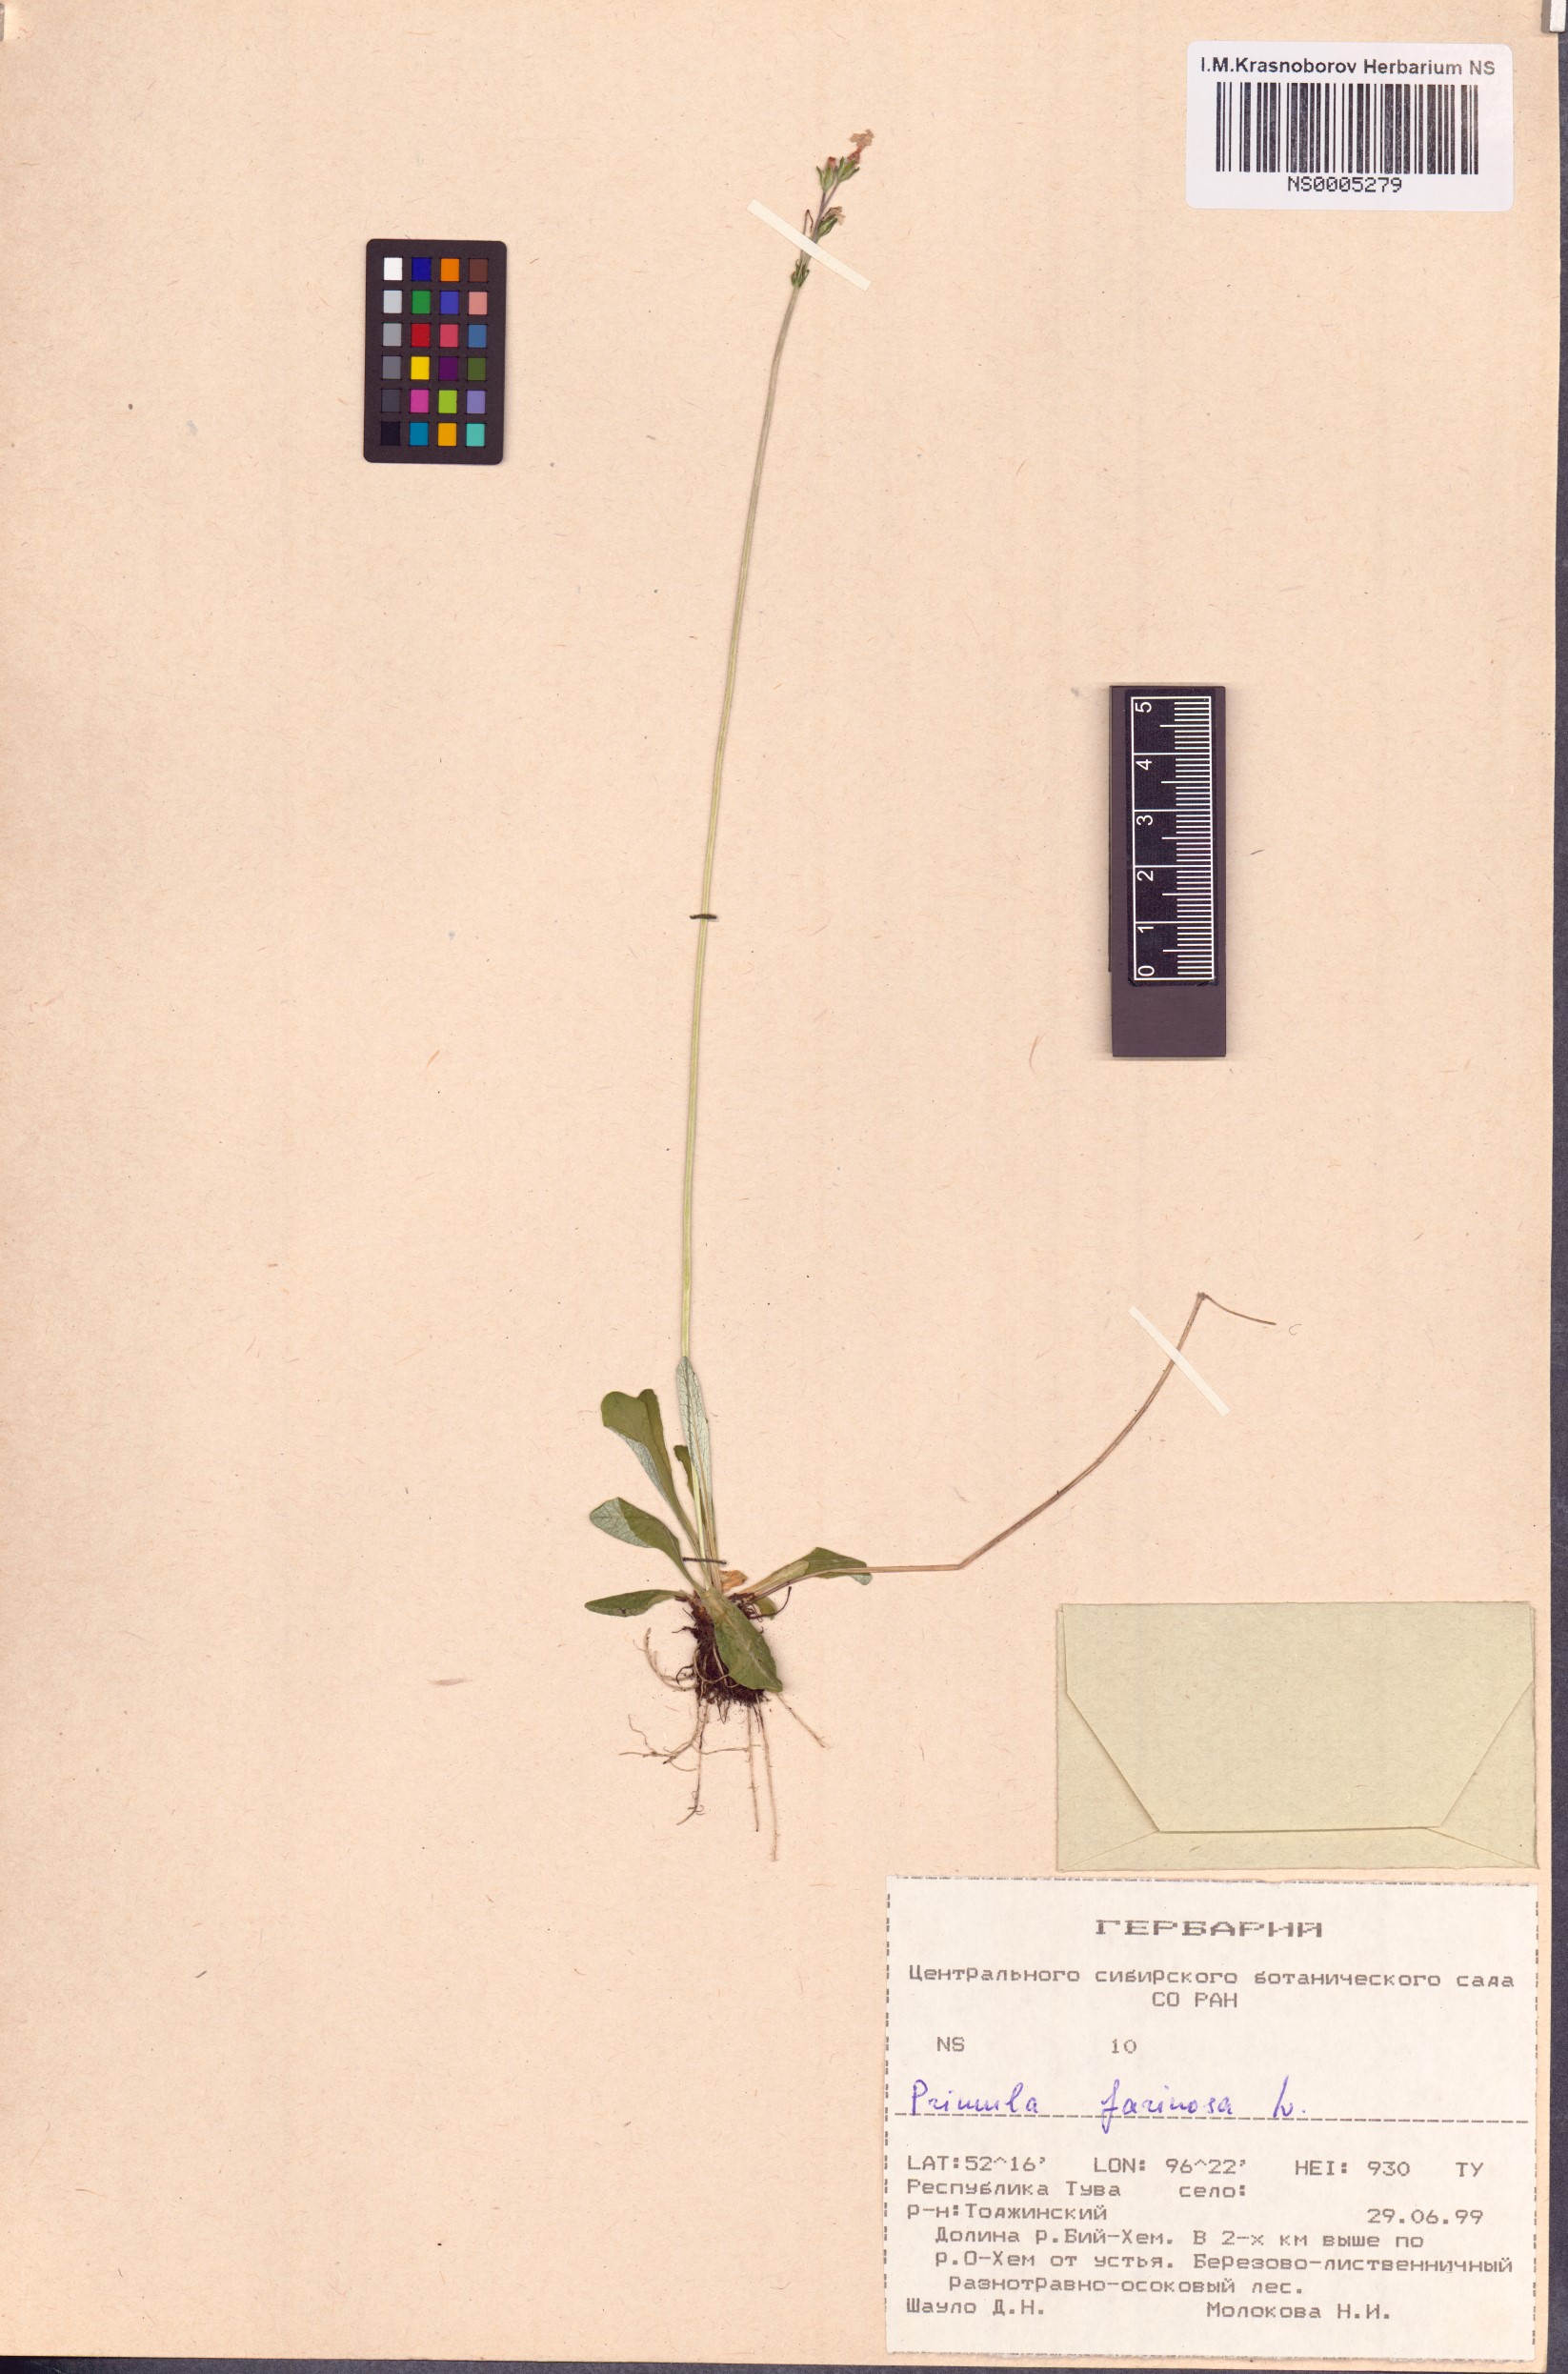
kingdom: Plantae
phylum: Tracheophyta
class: Magnoliopsida
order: Ericales
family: Primulaceae
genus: Primula
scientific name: Primula farinosa
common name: Bird's-eye primrose
